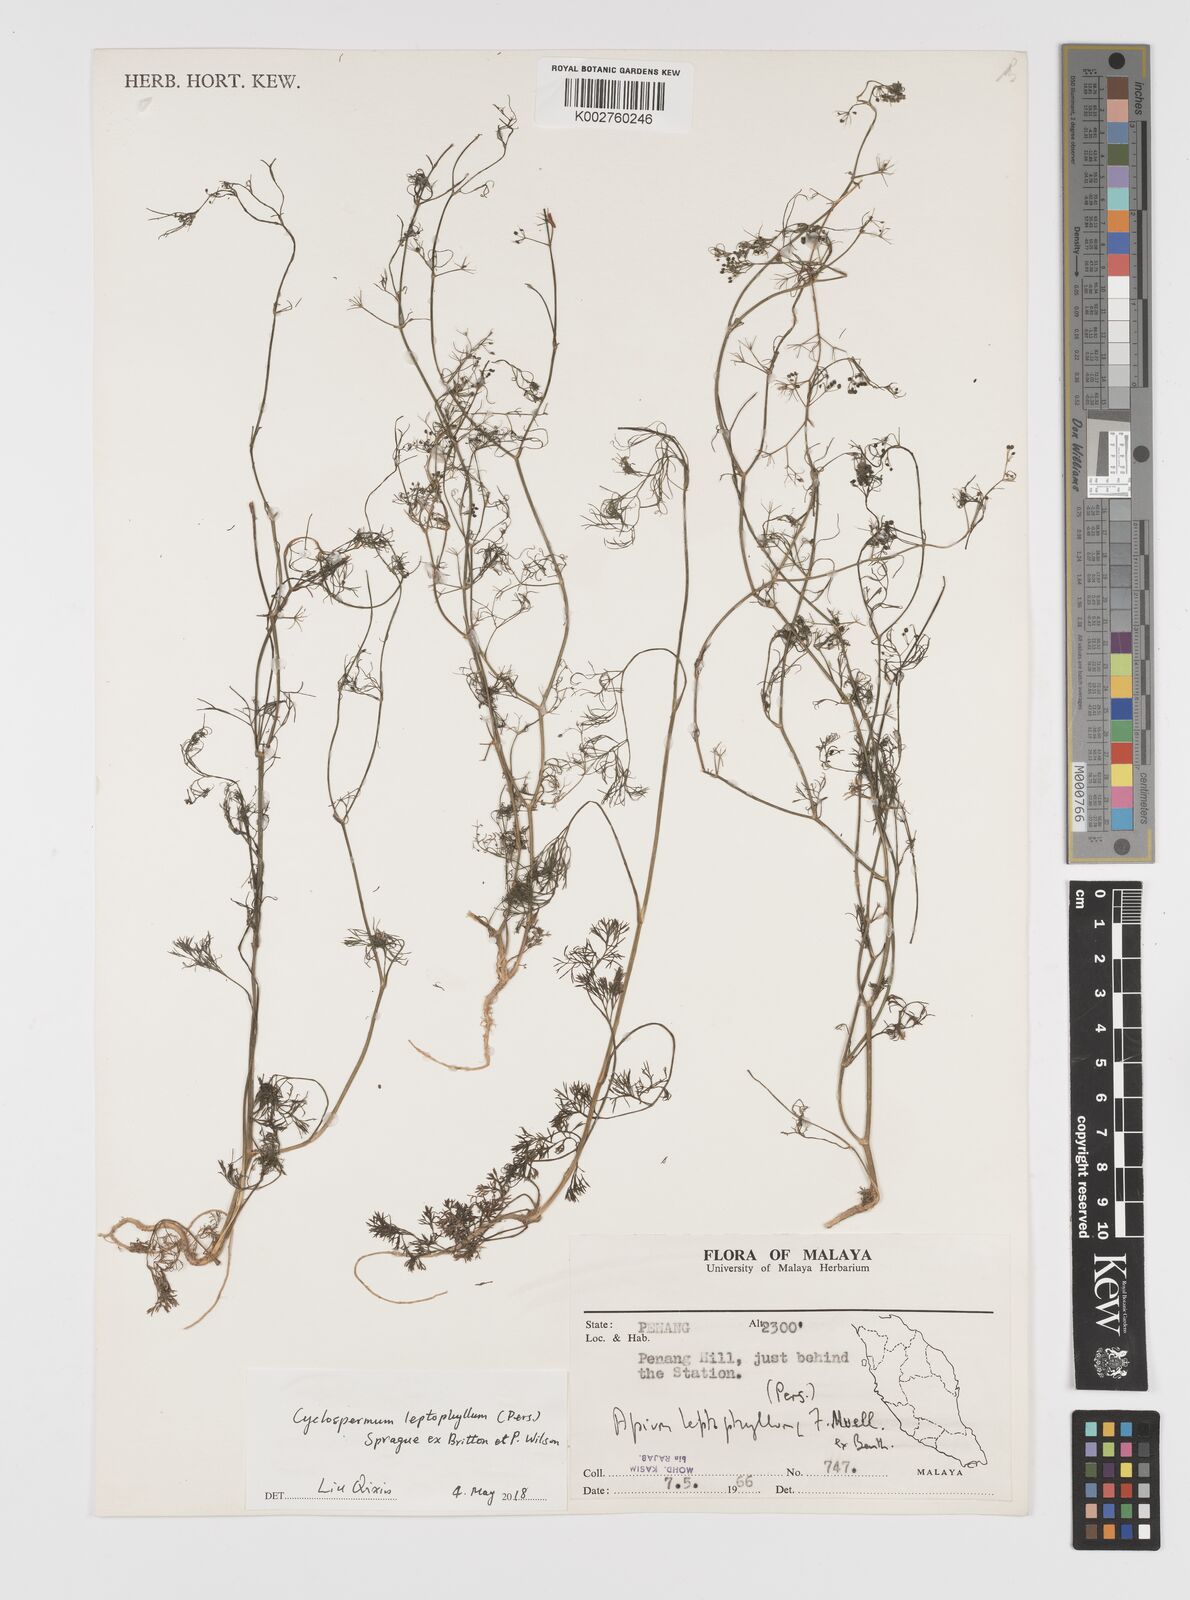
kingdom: Plantae
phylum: Tracheophyta
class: Magnoliopsida
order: Apiales
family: Apiaceae
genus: Cyclospermum
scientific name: Cyclospermum leptophyllum
